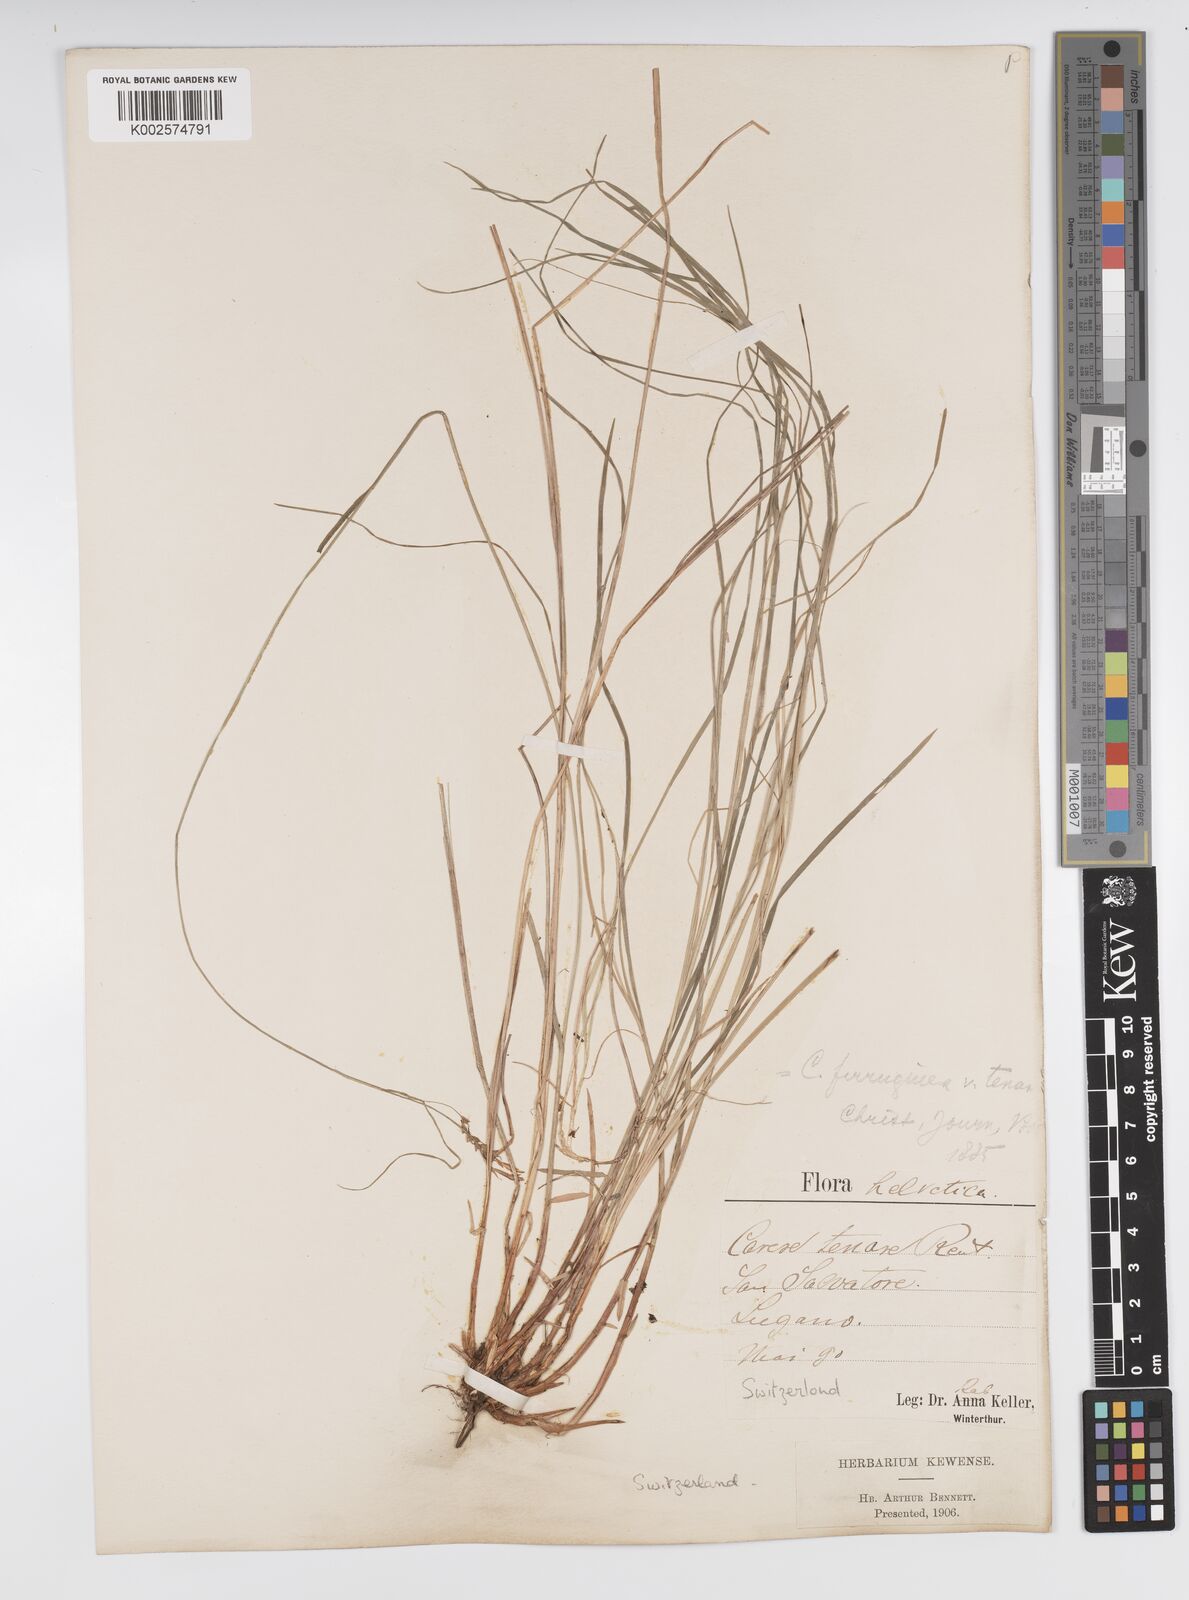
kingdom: Plantae
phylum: Tracheophyta
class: Liliopsida
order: Poales
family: Cyperaceae
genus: Carex
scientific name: Carex austroalpina
